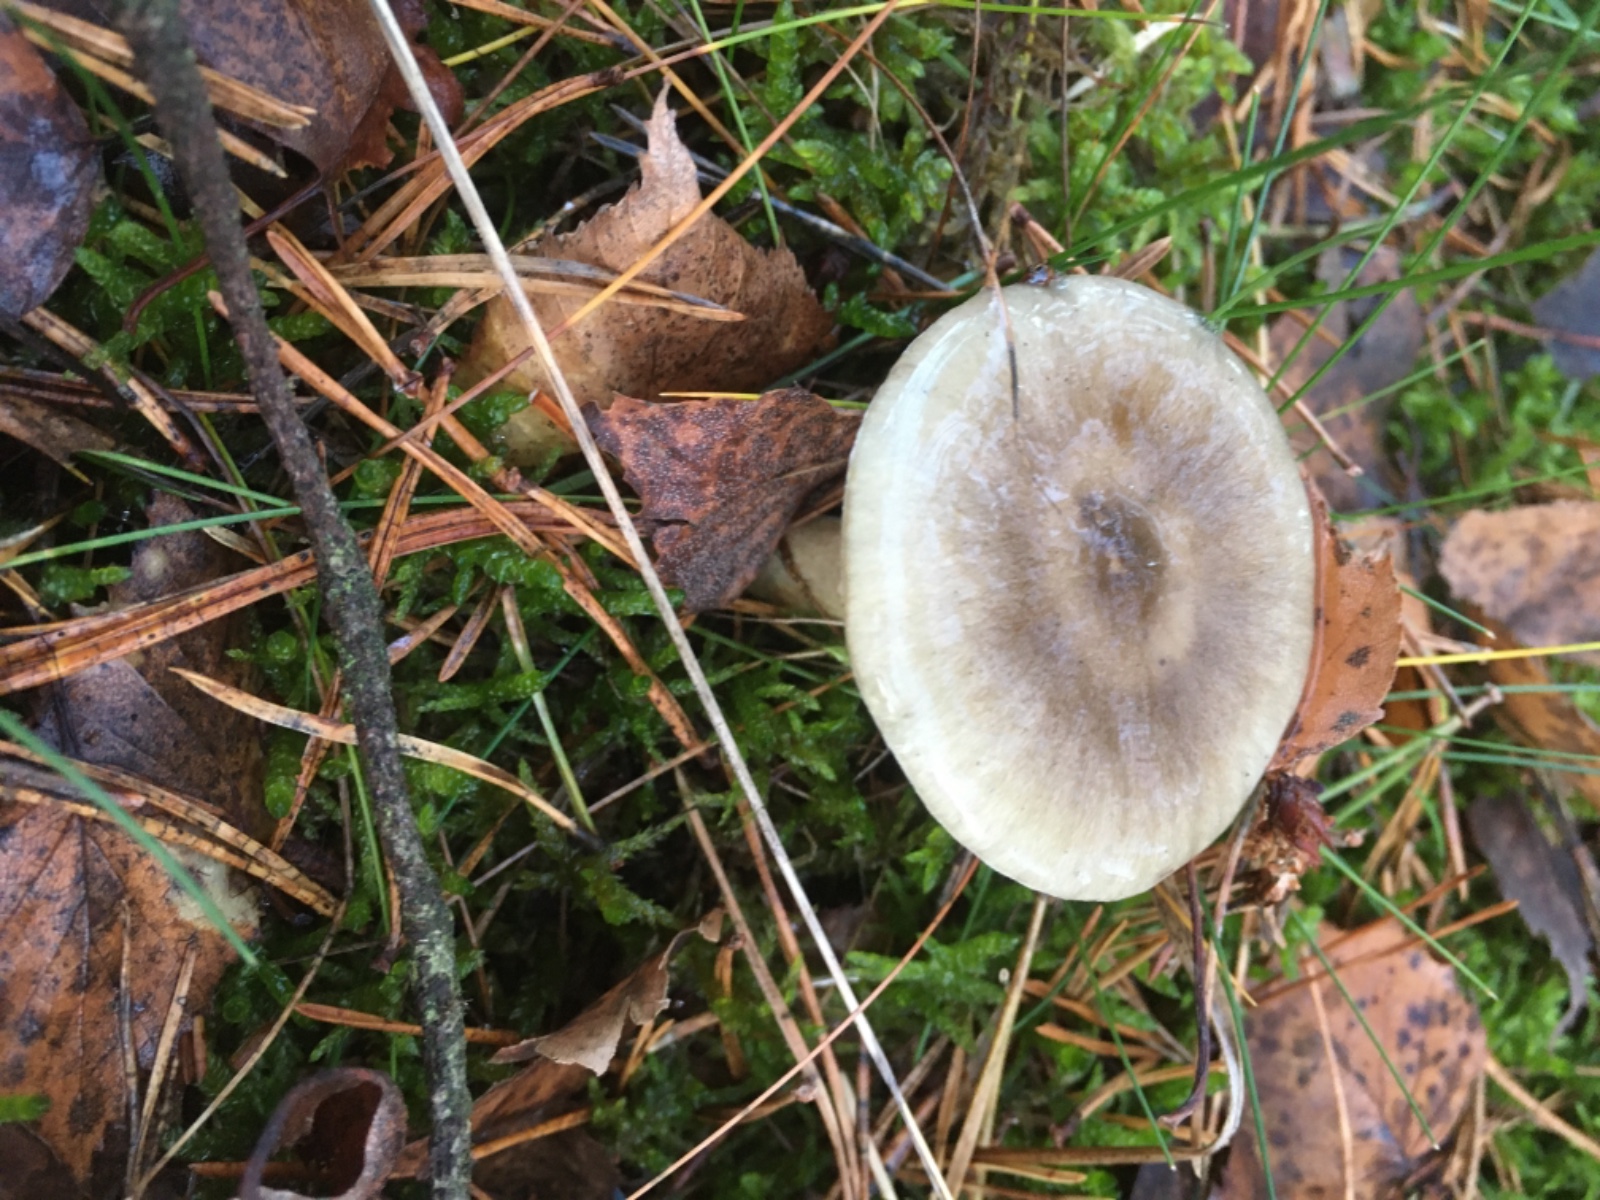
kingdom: Fungi
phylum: Basidiomycota
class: Agaricomycetes
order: Agaricales
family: Hygrophoraceae
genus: Hygrophorus
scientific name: Hygrophorus hypothejus
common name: frost-sneglehat
